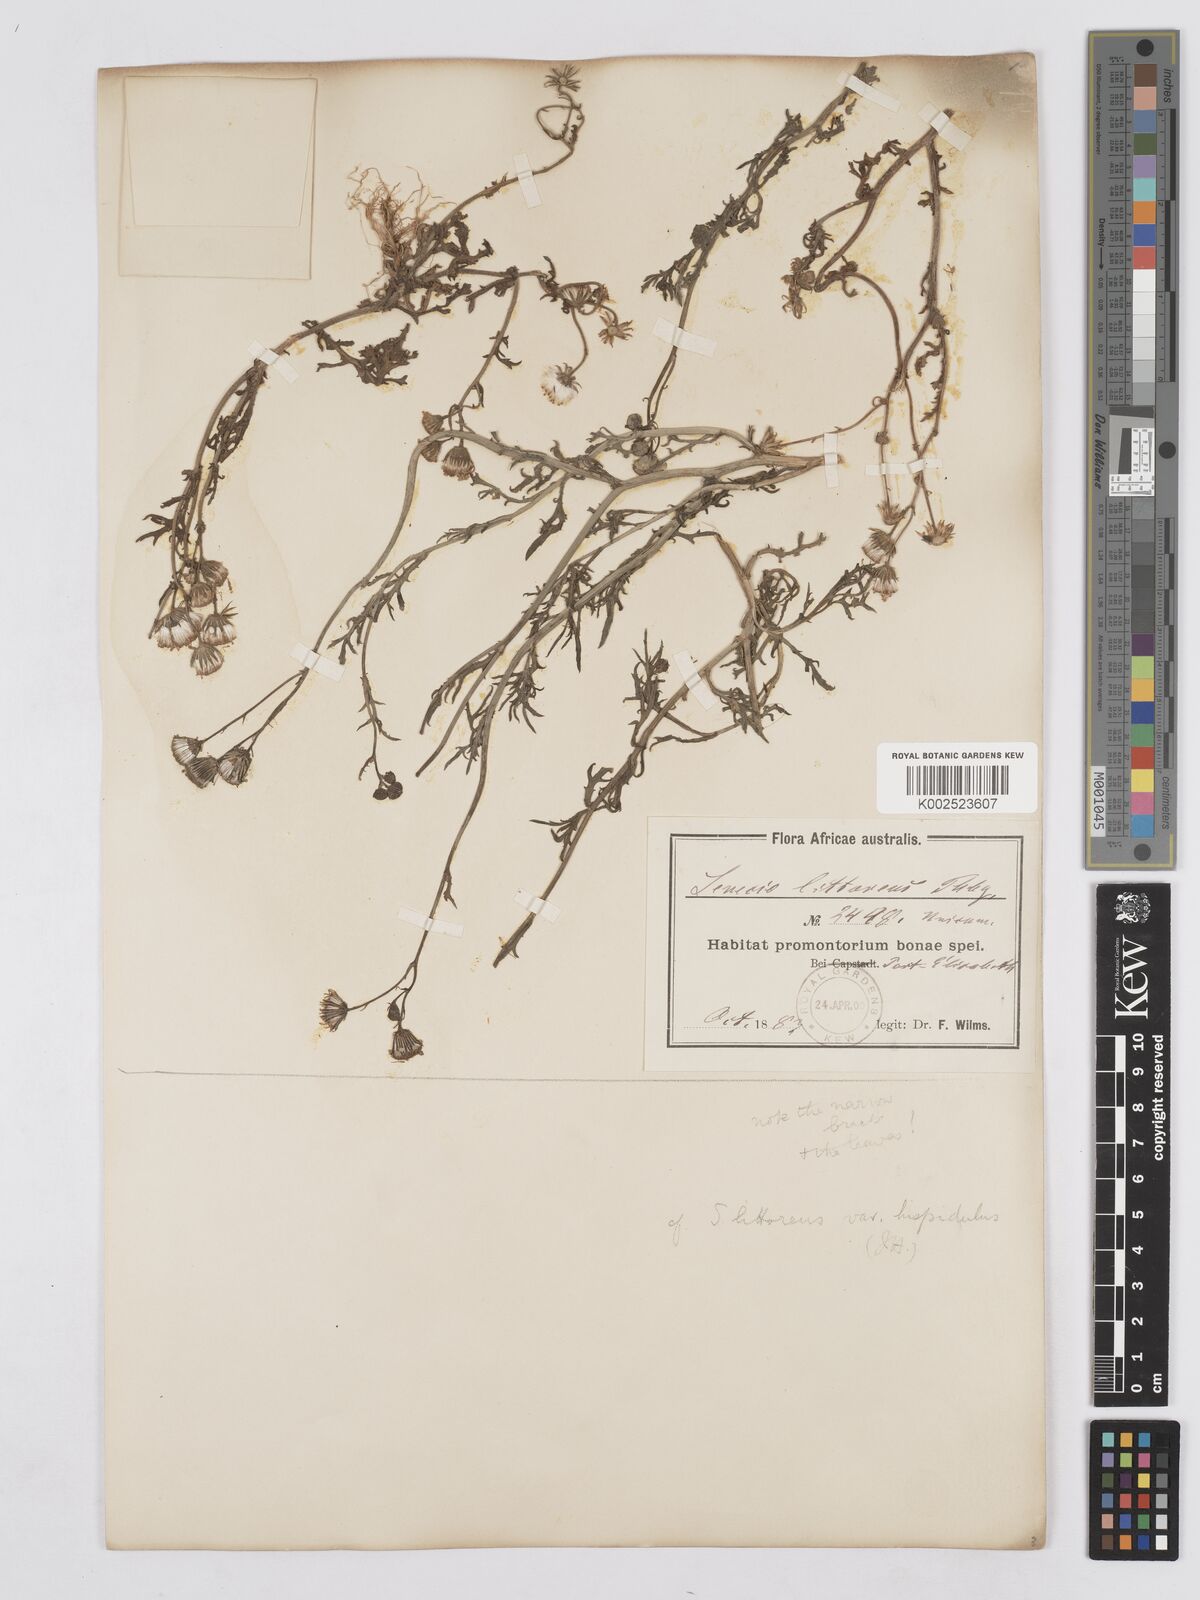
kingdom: Plantae
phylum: Tracheophyta
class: Magnoliopsida
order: Asterales
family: Asteraceae
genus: Senecio
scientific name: Senecio
